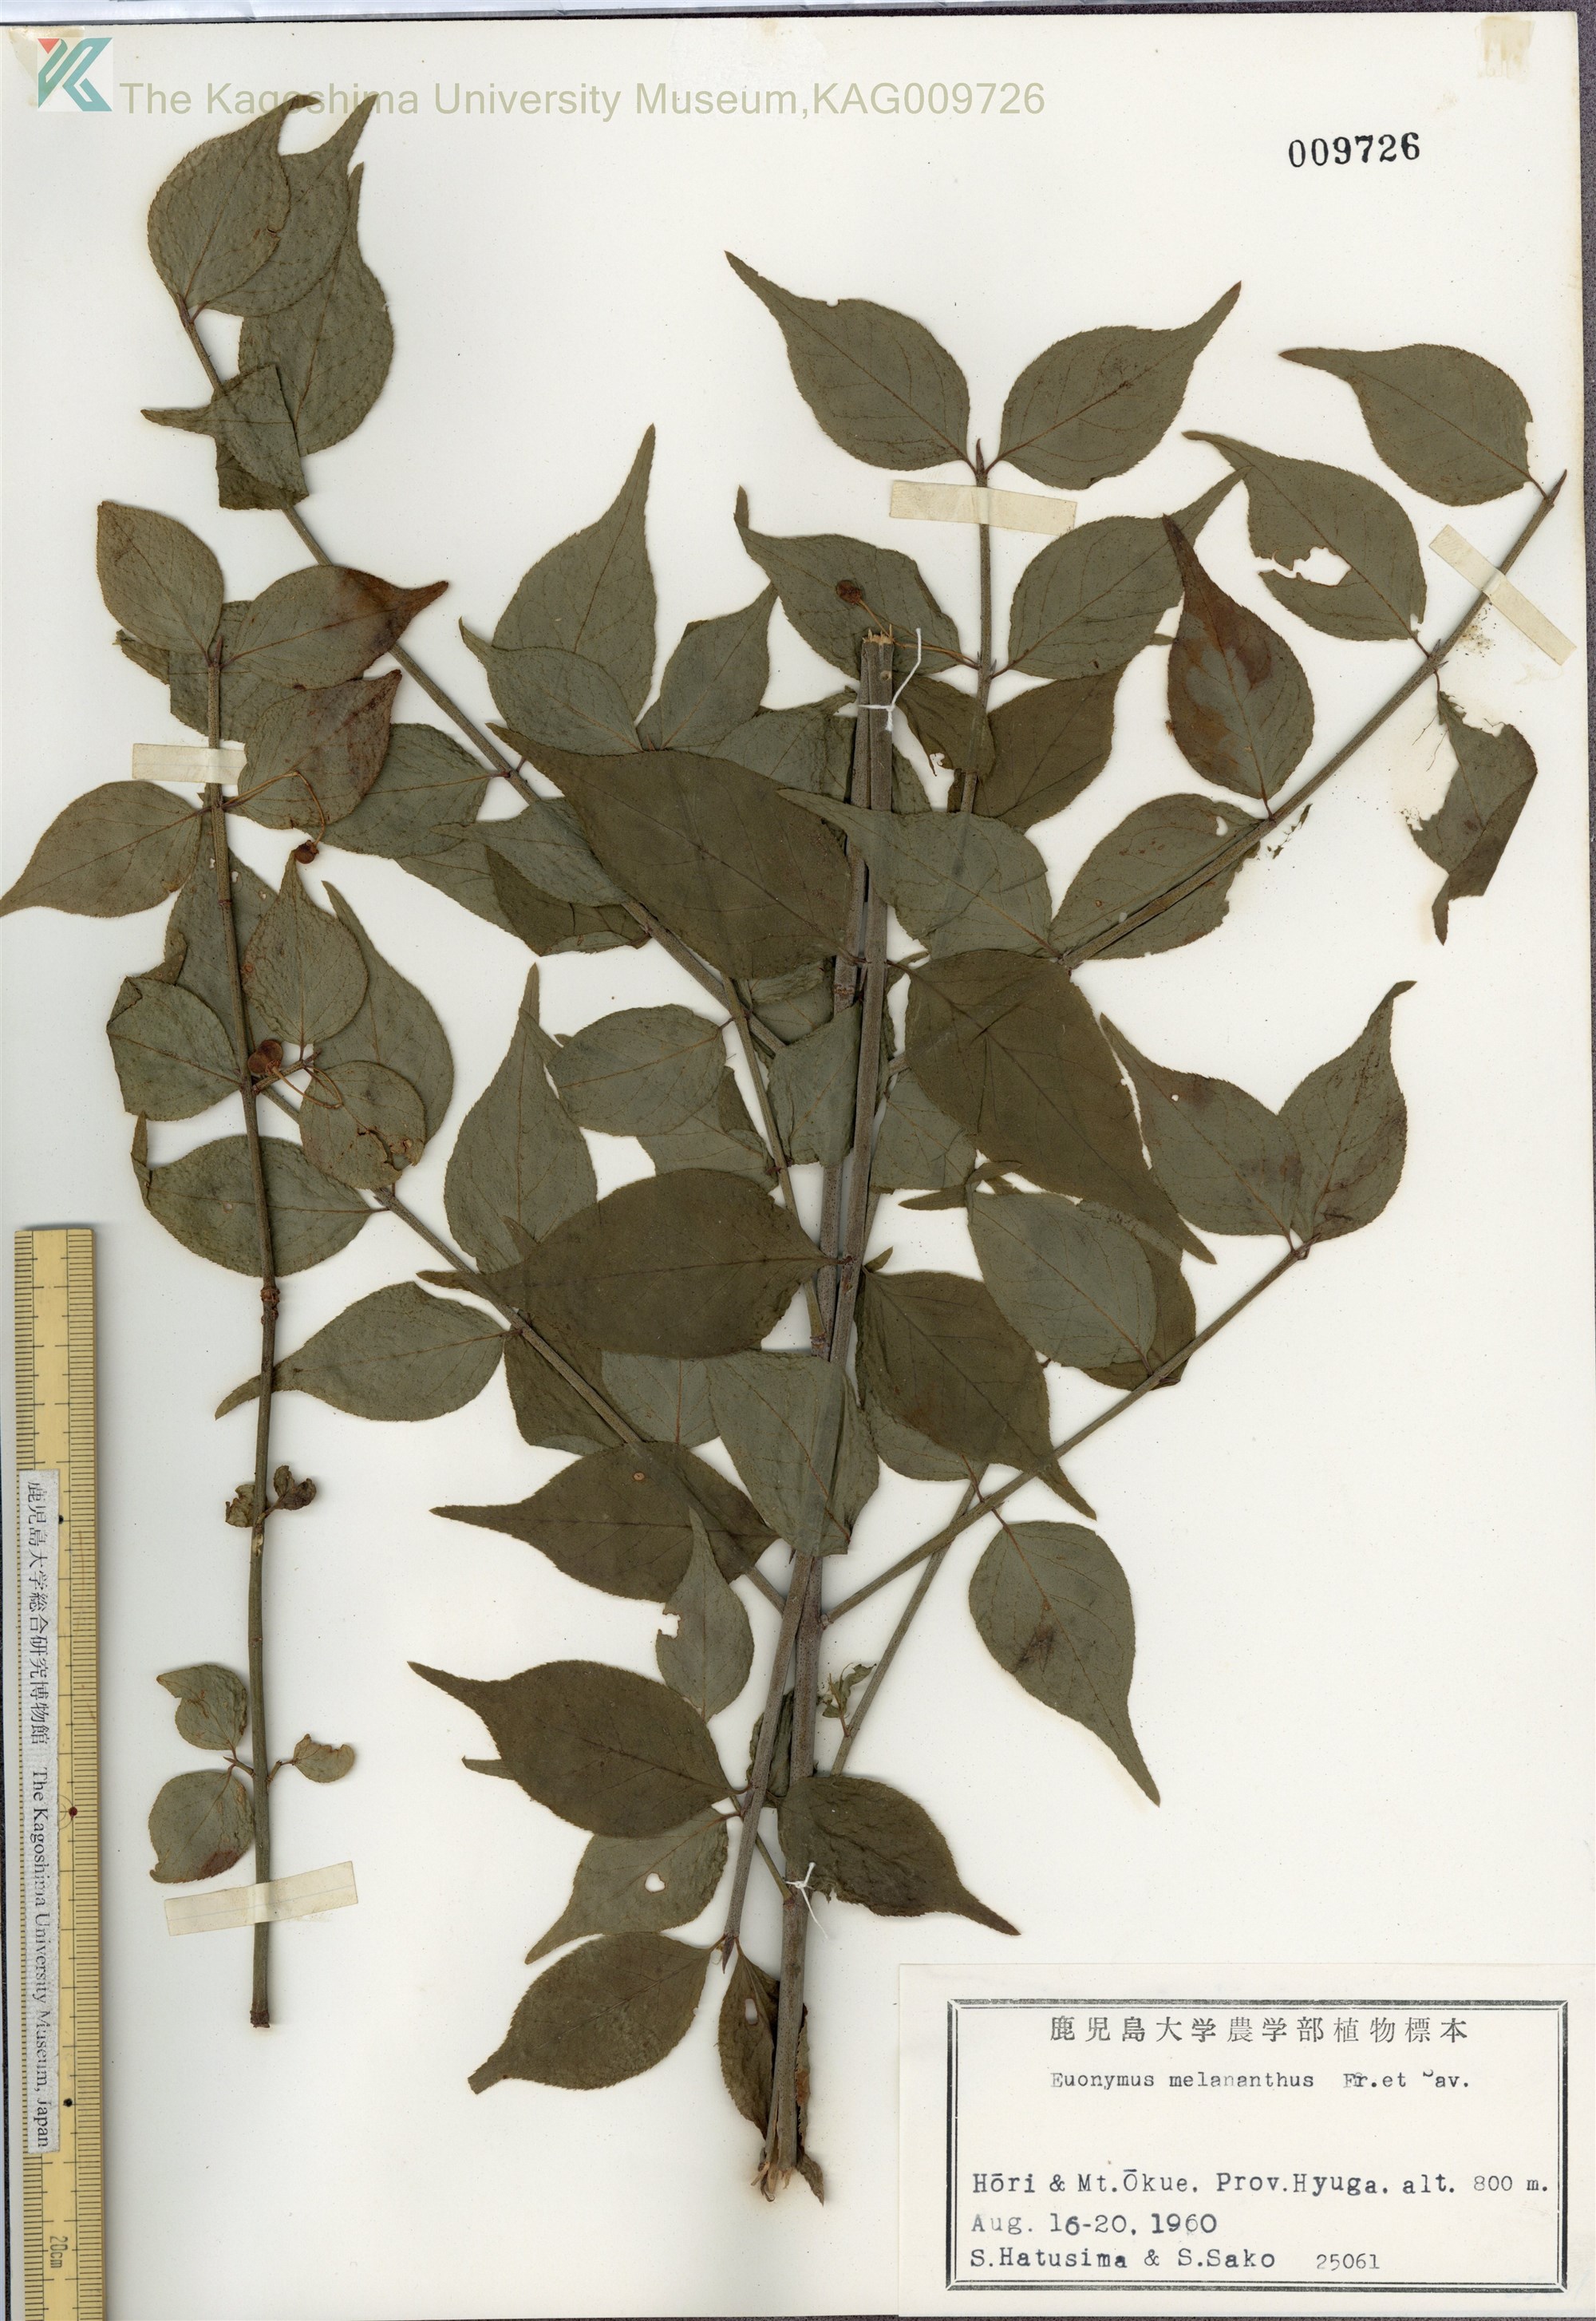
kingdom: Plantae
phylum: Tracheophyta
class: Magnoliopsida
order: Celastrales
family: Celastraceae
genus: Euonymus
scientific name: Euonymus melananthus
